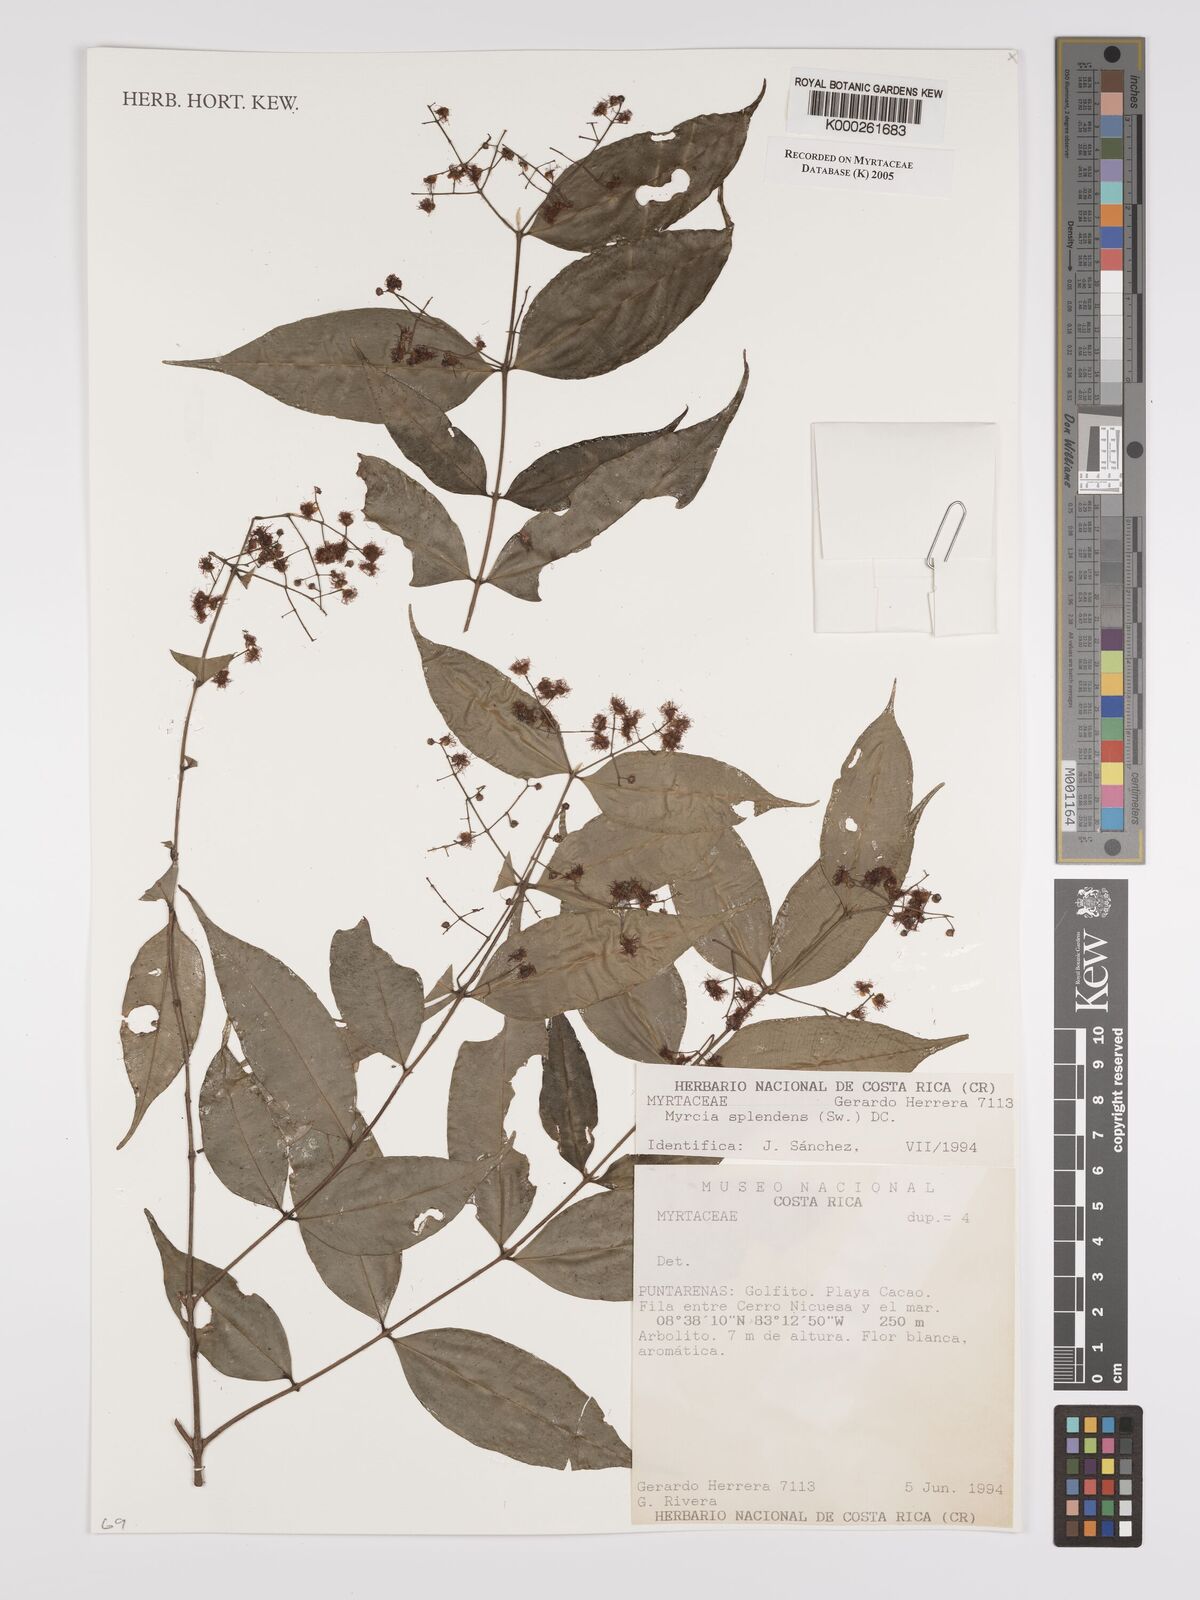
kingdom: Plantae
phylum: Tracheophyta
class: Magnoliopsida
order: Myrtales
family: Myrtaceae
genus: Myrcia
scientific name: Myrcia splendens
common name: Surinam cherry
